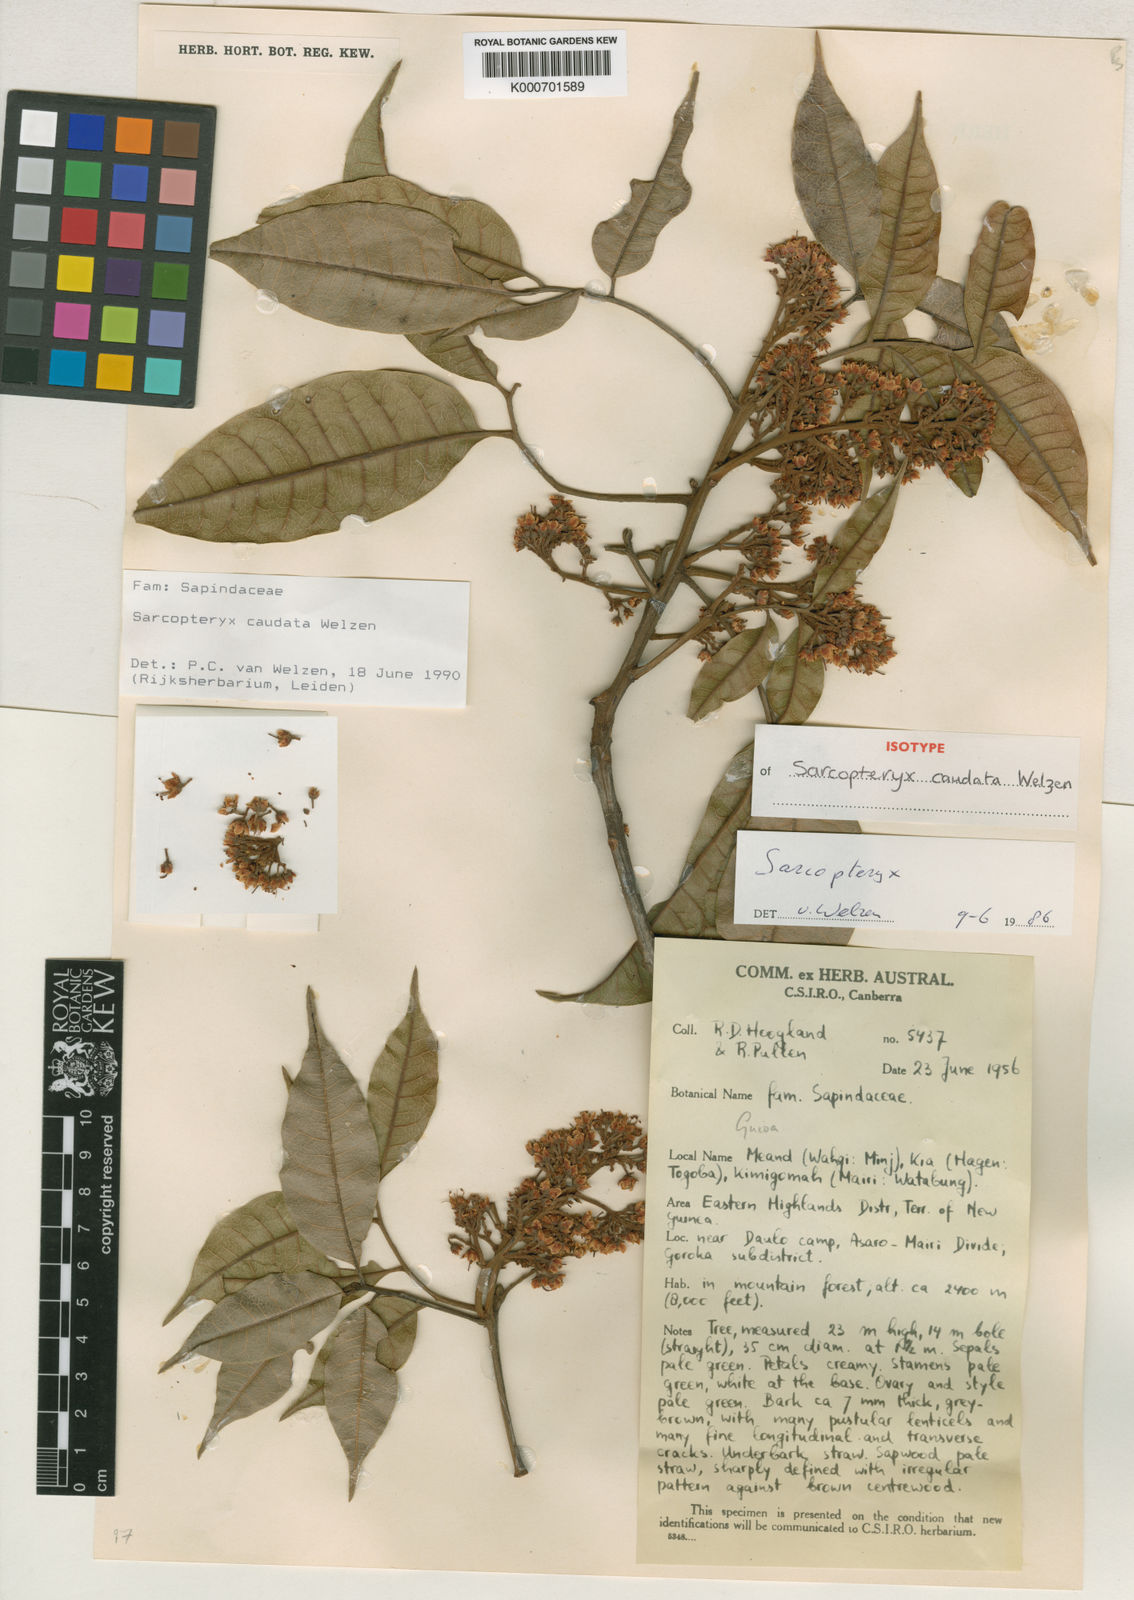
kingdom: Plantae
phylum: Tracheophyta
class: Magnoliopsida
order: Sapindales
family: Sapindaceae
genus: Sarcopteryx
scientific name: Sarcopteryx caudata
